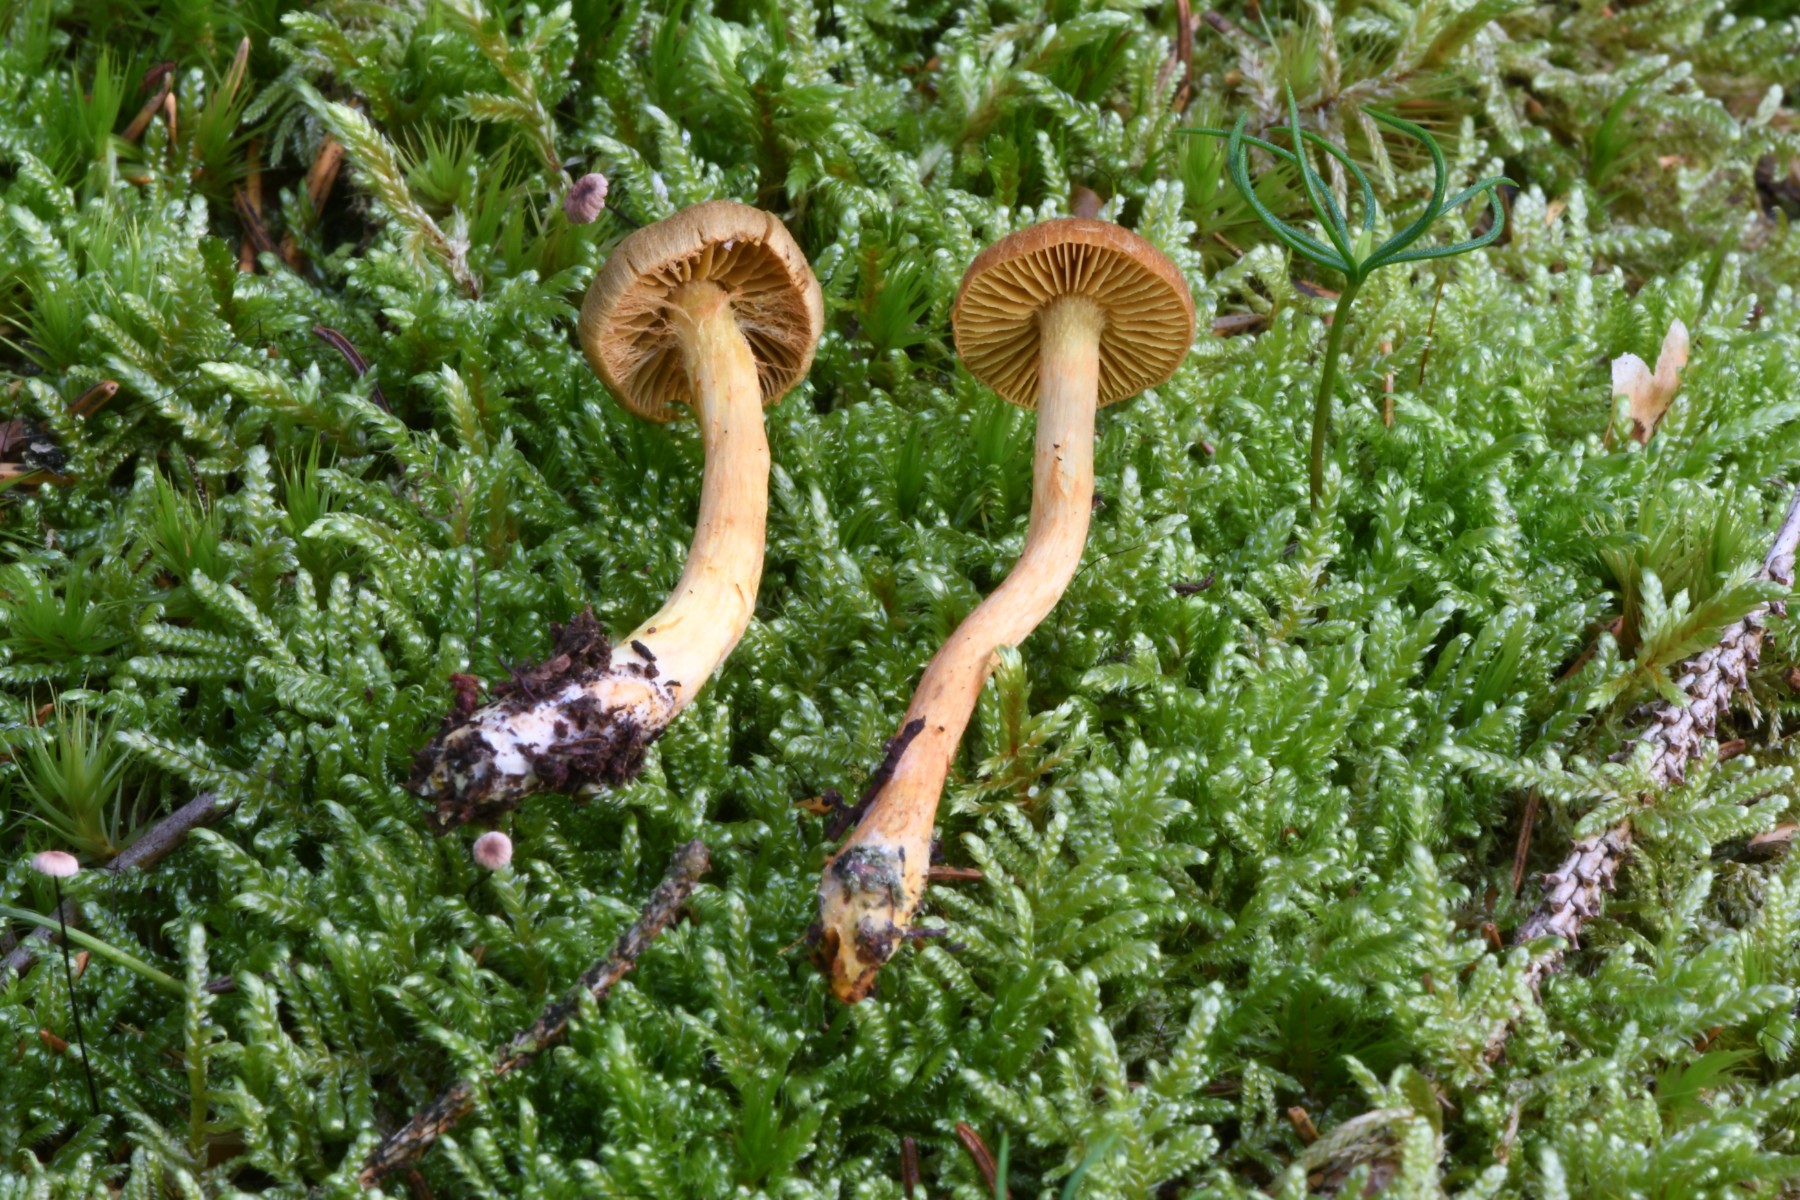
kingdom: Fungi
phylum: Basidiomycota
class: Agaricomycetes
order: Agaricales
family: Cortinariaceae
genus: Cortinarius
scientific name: Cortinarius
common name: gulbladet slørhat
